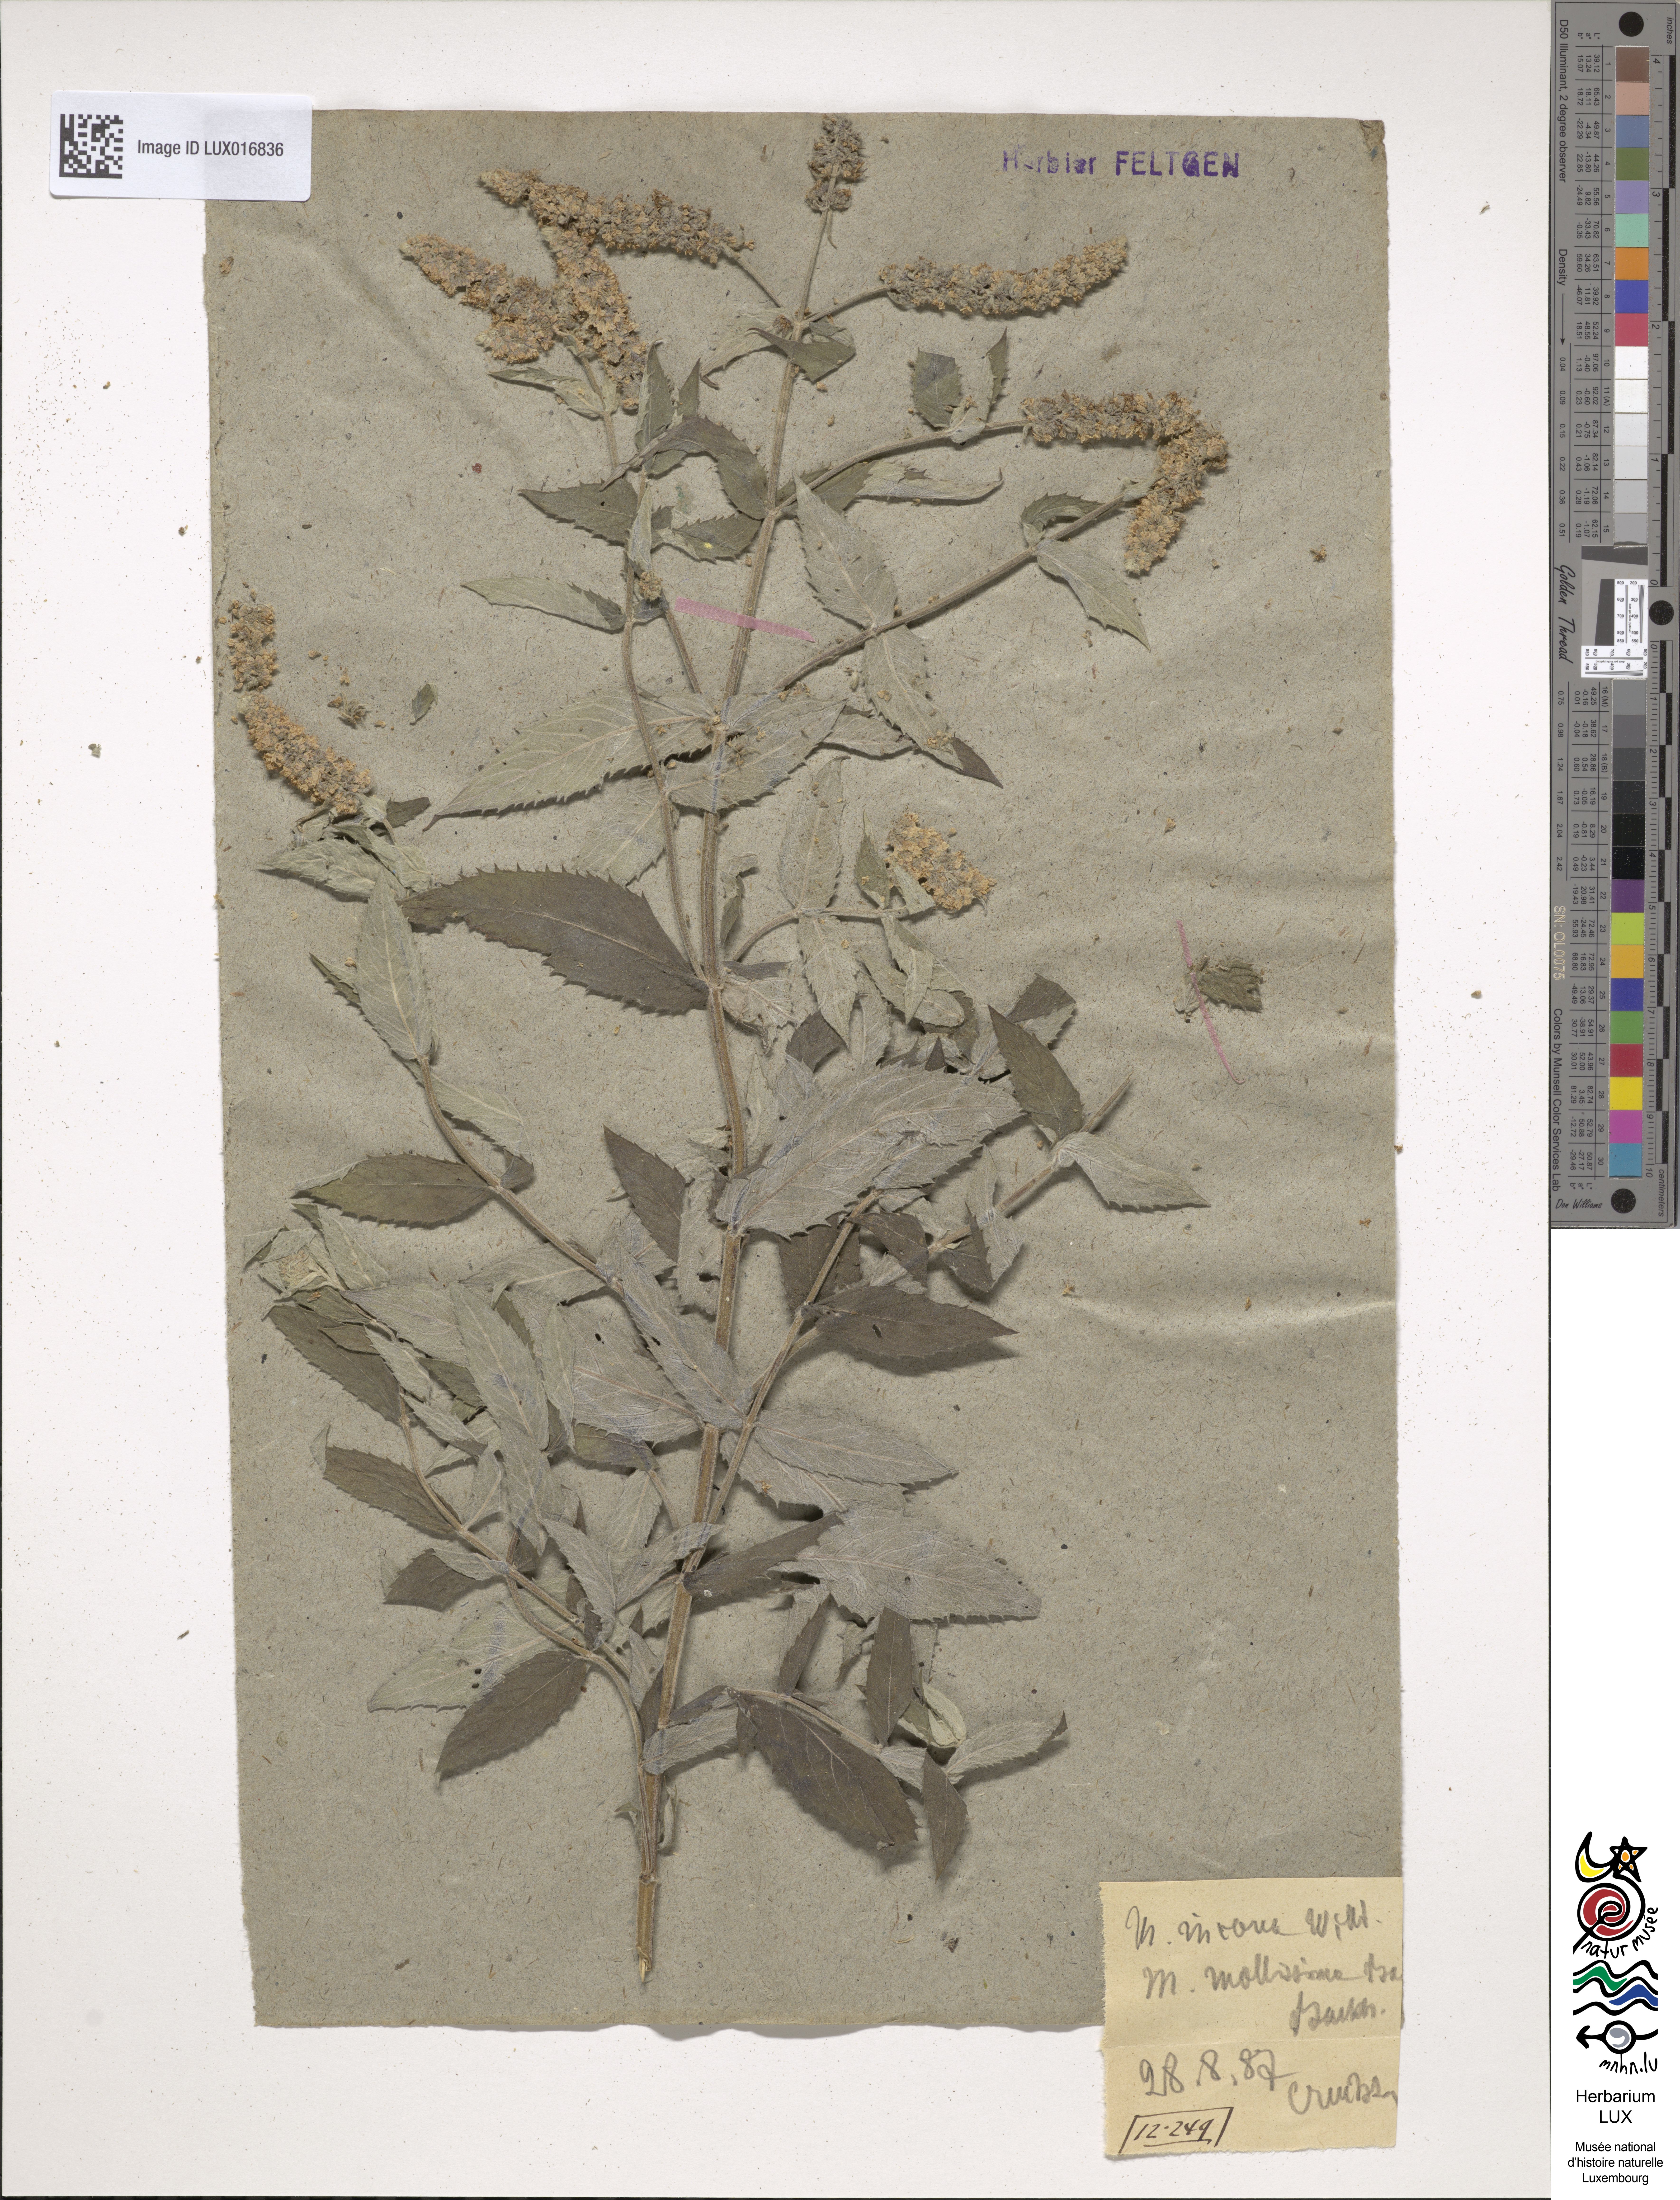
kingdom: Plantae
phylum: Tracheophyta
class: Magnoliopsida
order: Lamiales
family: Lamiaceae
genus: Mentha
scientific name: Mentha longifolia
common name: Horse mint
